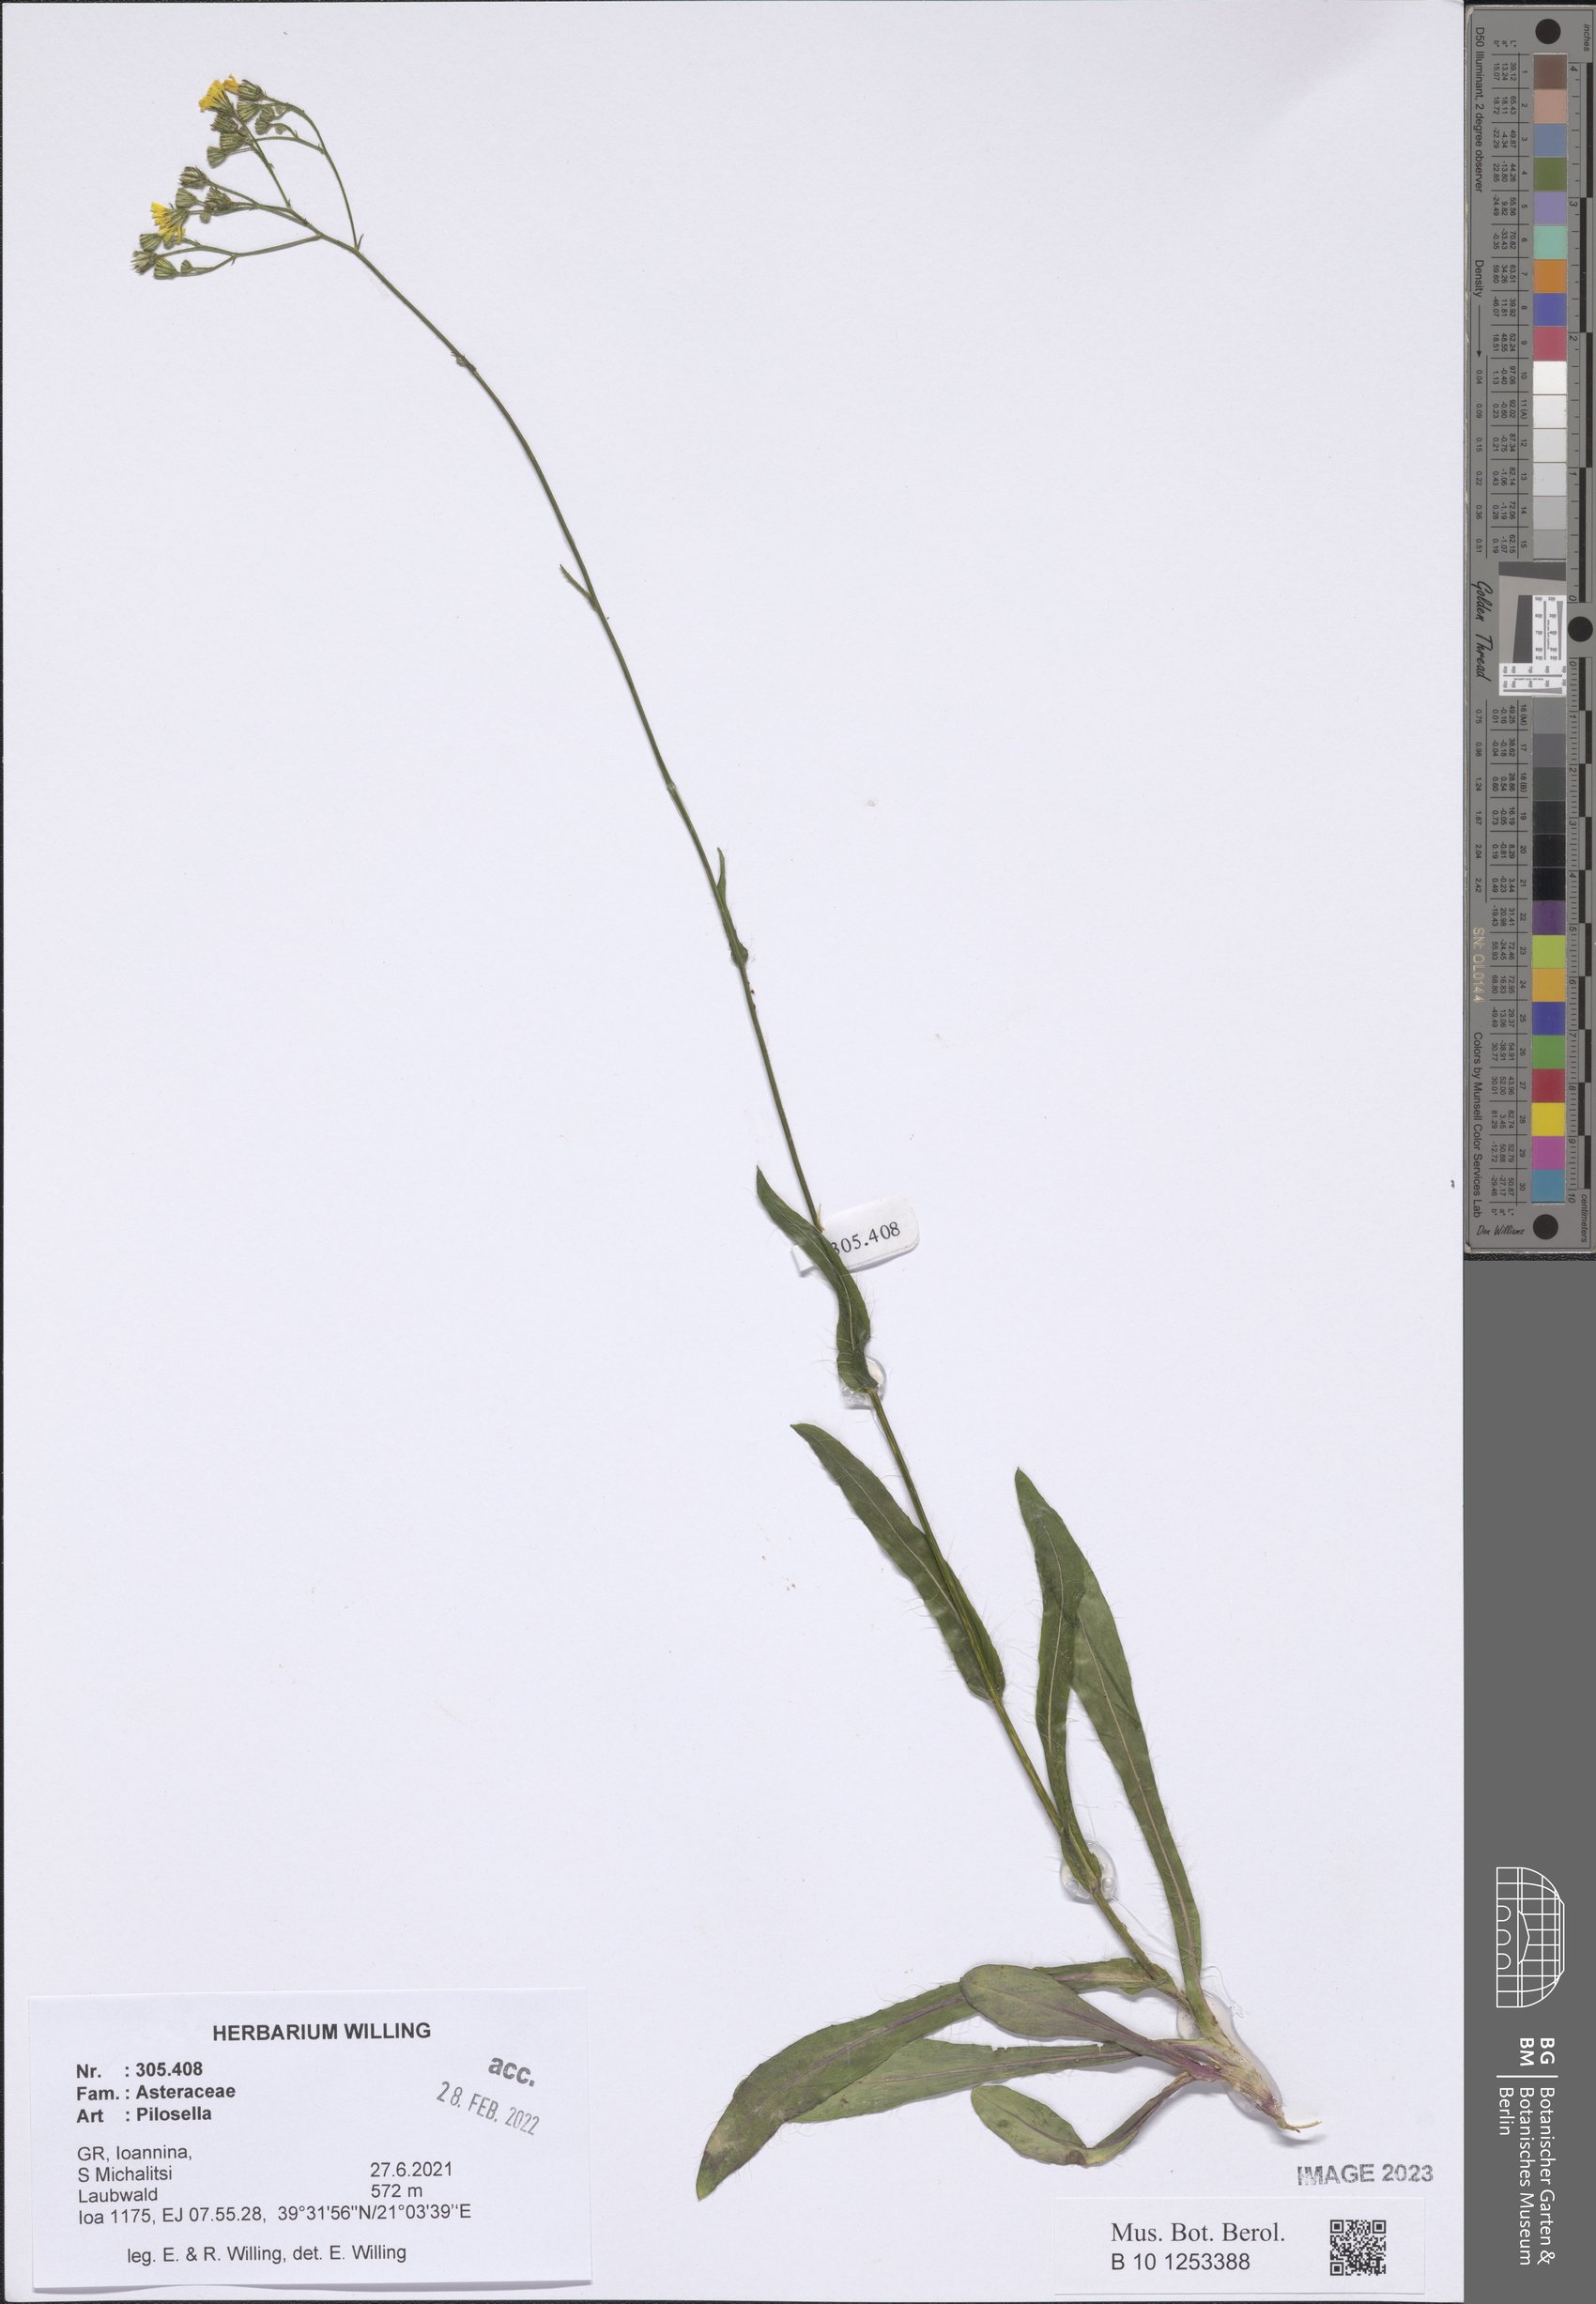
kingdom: Plantae
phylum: Tracheophyta
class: Magnoliopsida
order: Asterales
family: Asteraceae
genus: Pilosella
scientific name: Pilosella
